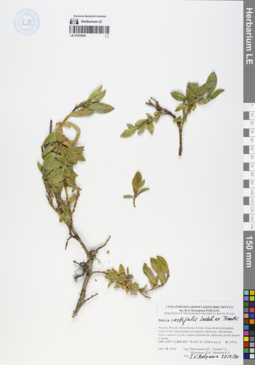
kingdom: Plantae
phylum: Tracheophyta
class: Magnoliopsida
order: Malpighiales
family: Salicaceae
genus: Salix
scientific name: Salix rectijulis
